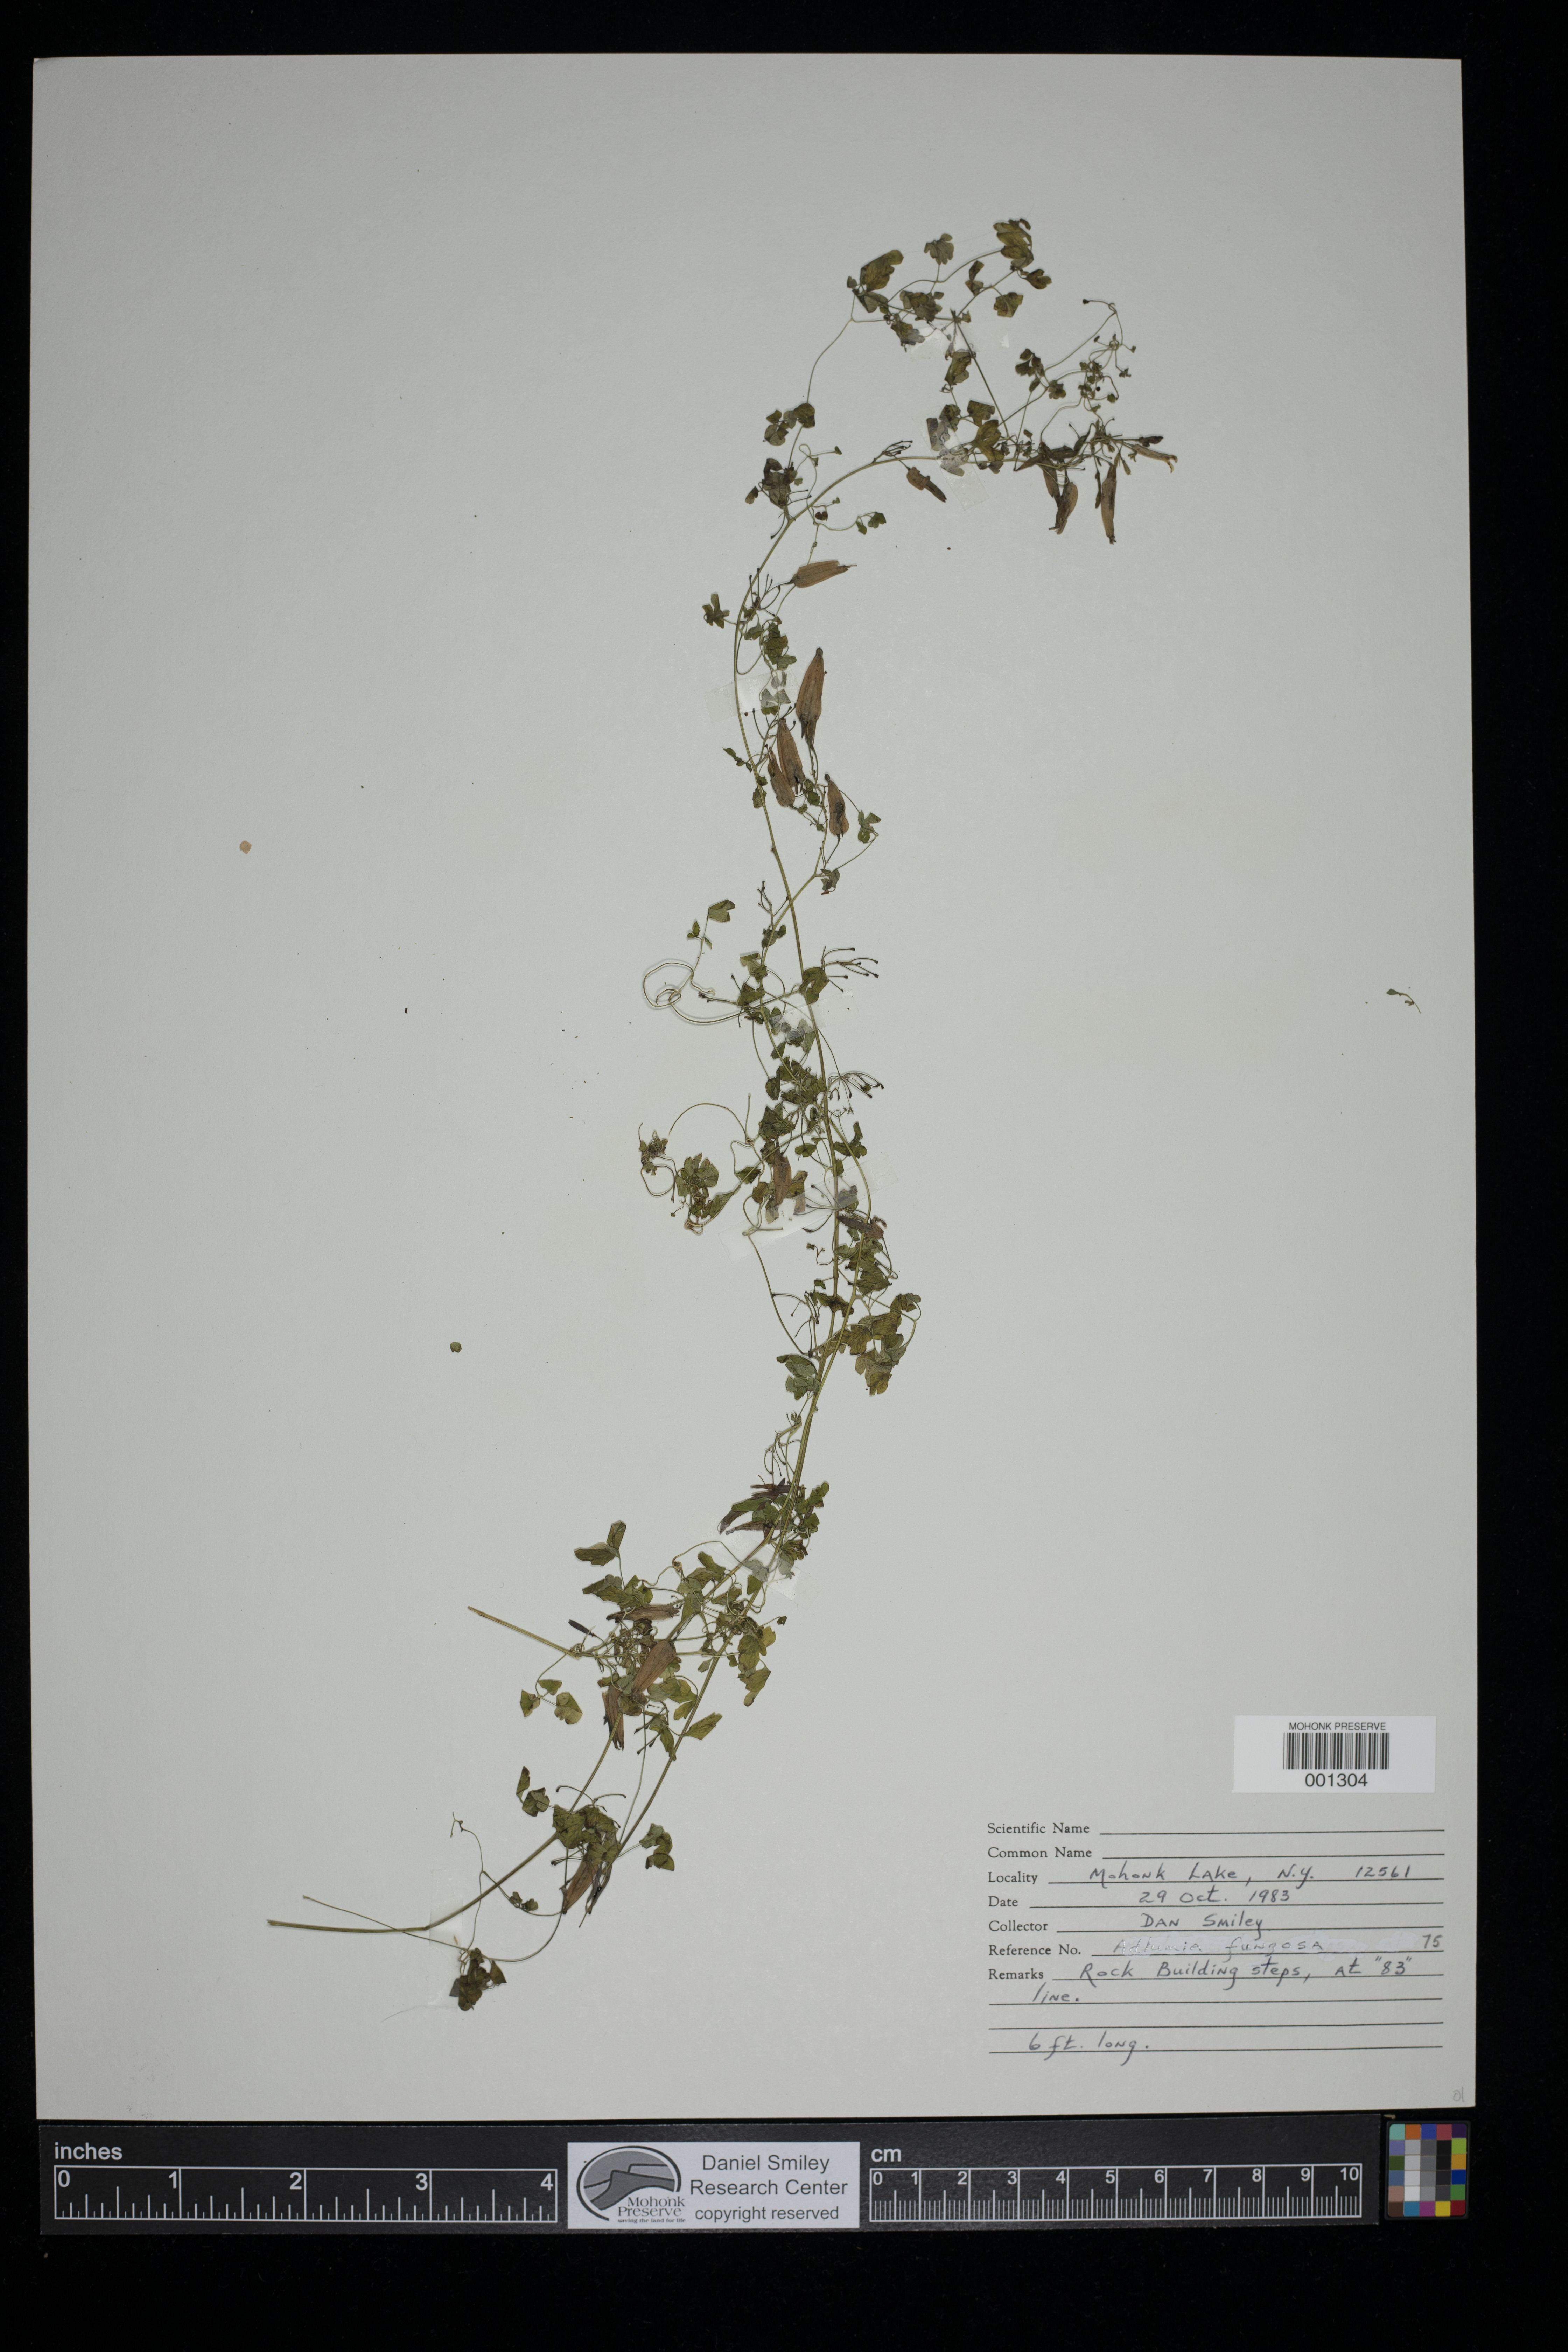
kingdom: Plantae
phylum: Tracheophyta
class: Magnoliopsida
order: Ranunculales
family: Papaveraceae
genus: Adlumia
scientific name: Adlumia fungosa
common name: Mountain-fringe
